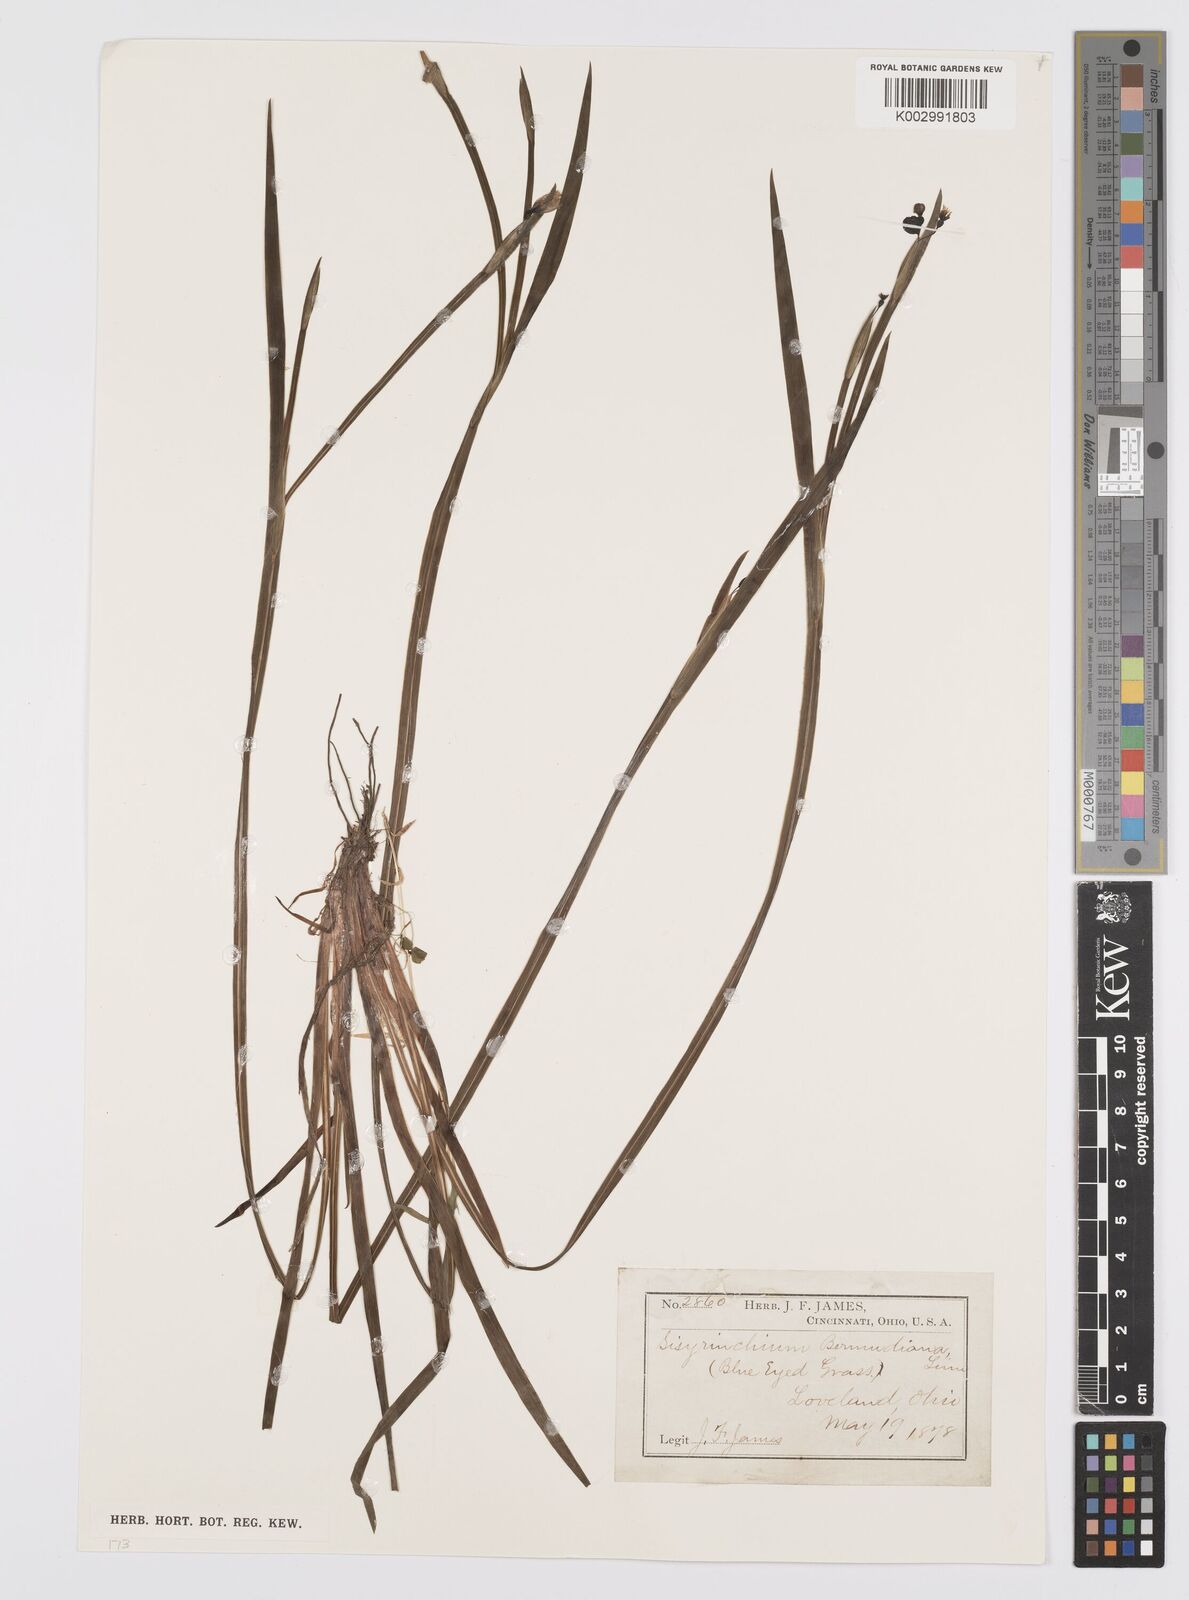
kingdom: Plantae
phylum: Tracheophyta
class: Liliopsida
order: Asparagales
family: Iridaceae
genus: Sisyrinchium
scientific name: Sisyrinchium bermudiana
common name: Blue-eyed-grass
